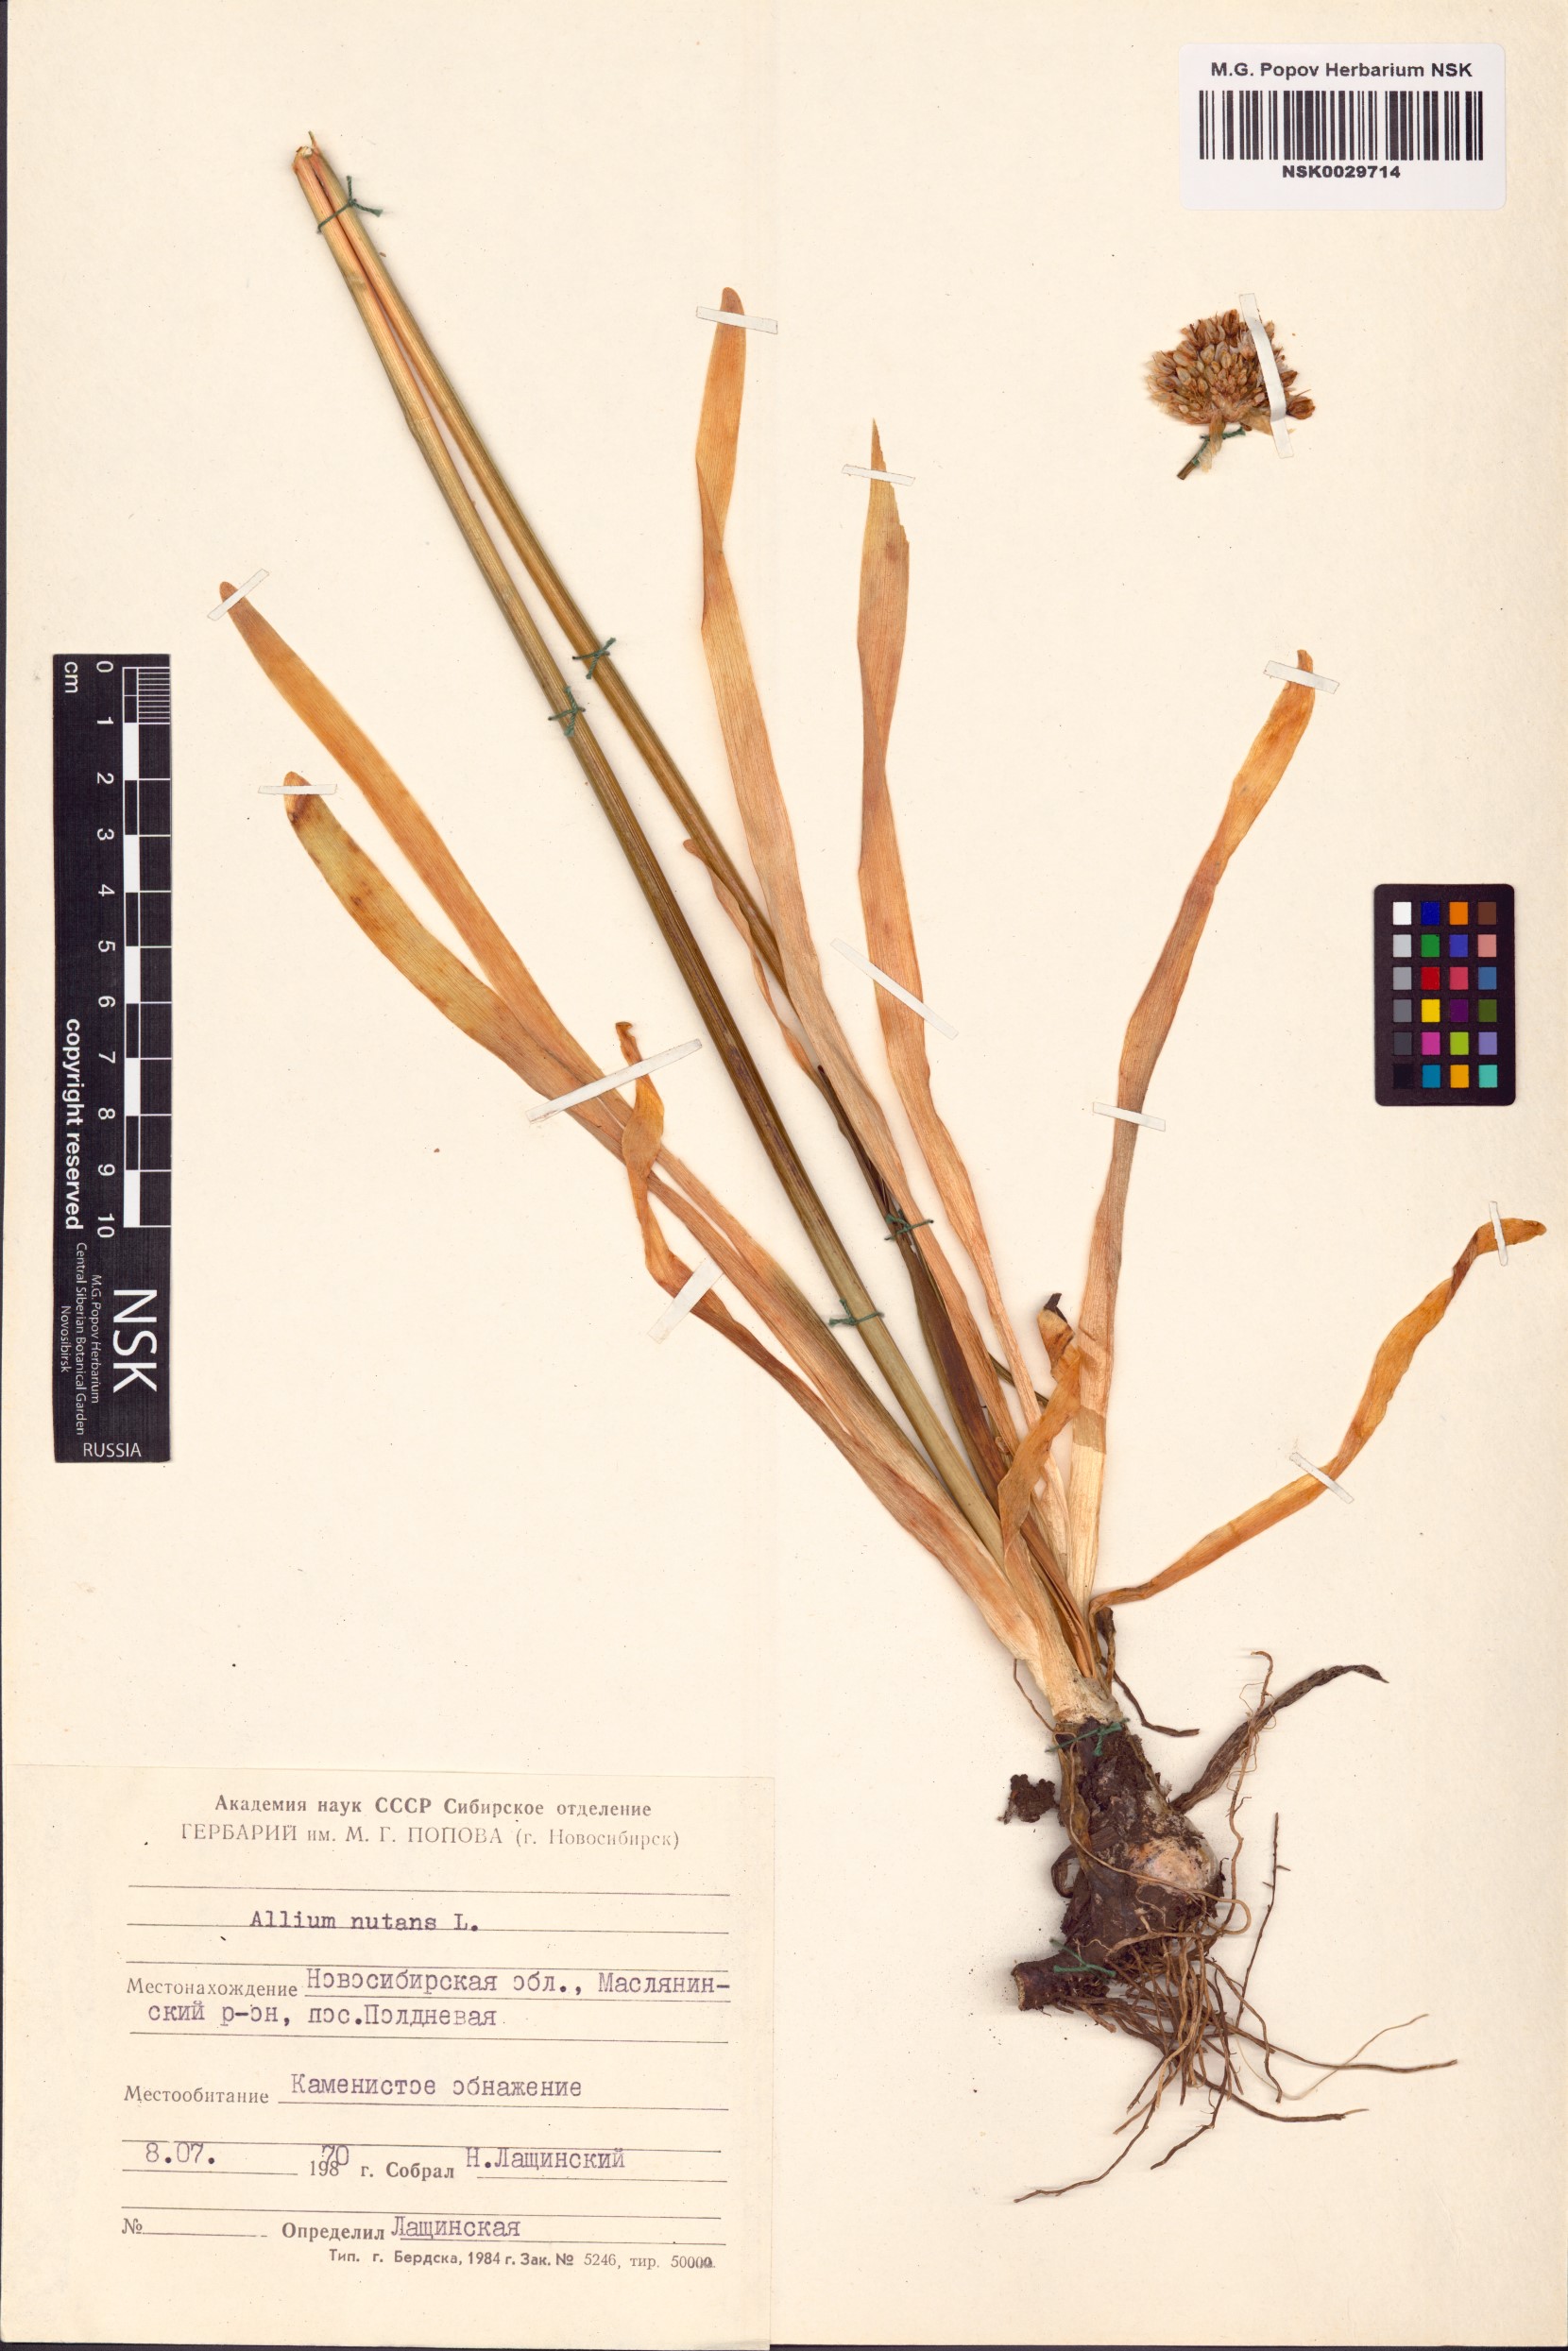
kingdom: Plantae
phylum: Tracheophyta
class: Liliopsida
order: Asparagales
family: Amaryllidaceae
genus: Allium
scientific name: Allium nutans
